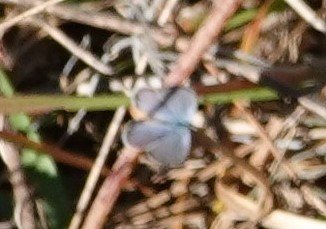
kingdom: Animalia
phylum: Arthropoda
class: Insecta
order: Lepidoptera
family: Lycaenidae
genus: Hemiargus
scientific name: Hemiargus ceraunus
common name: Ceraunus Blue
